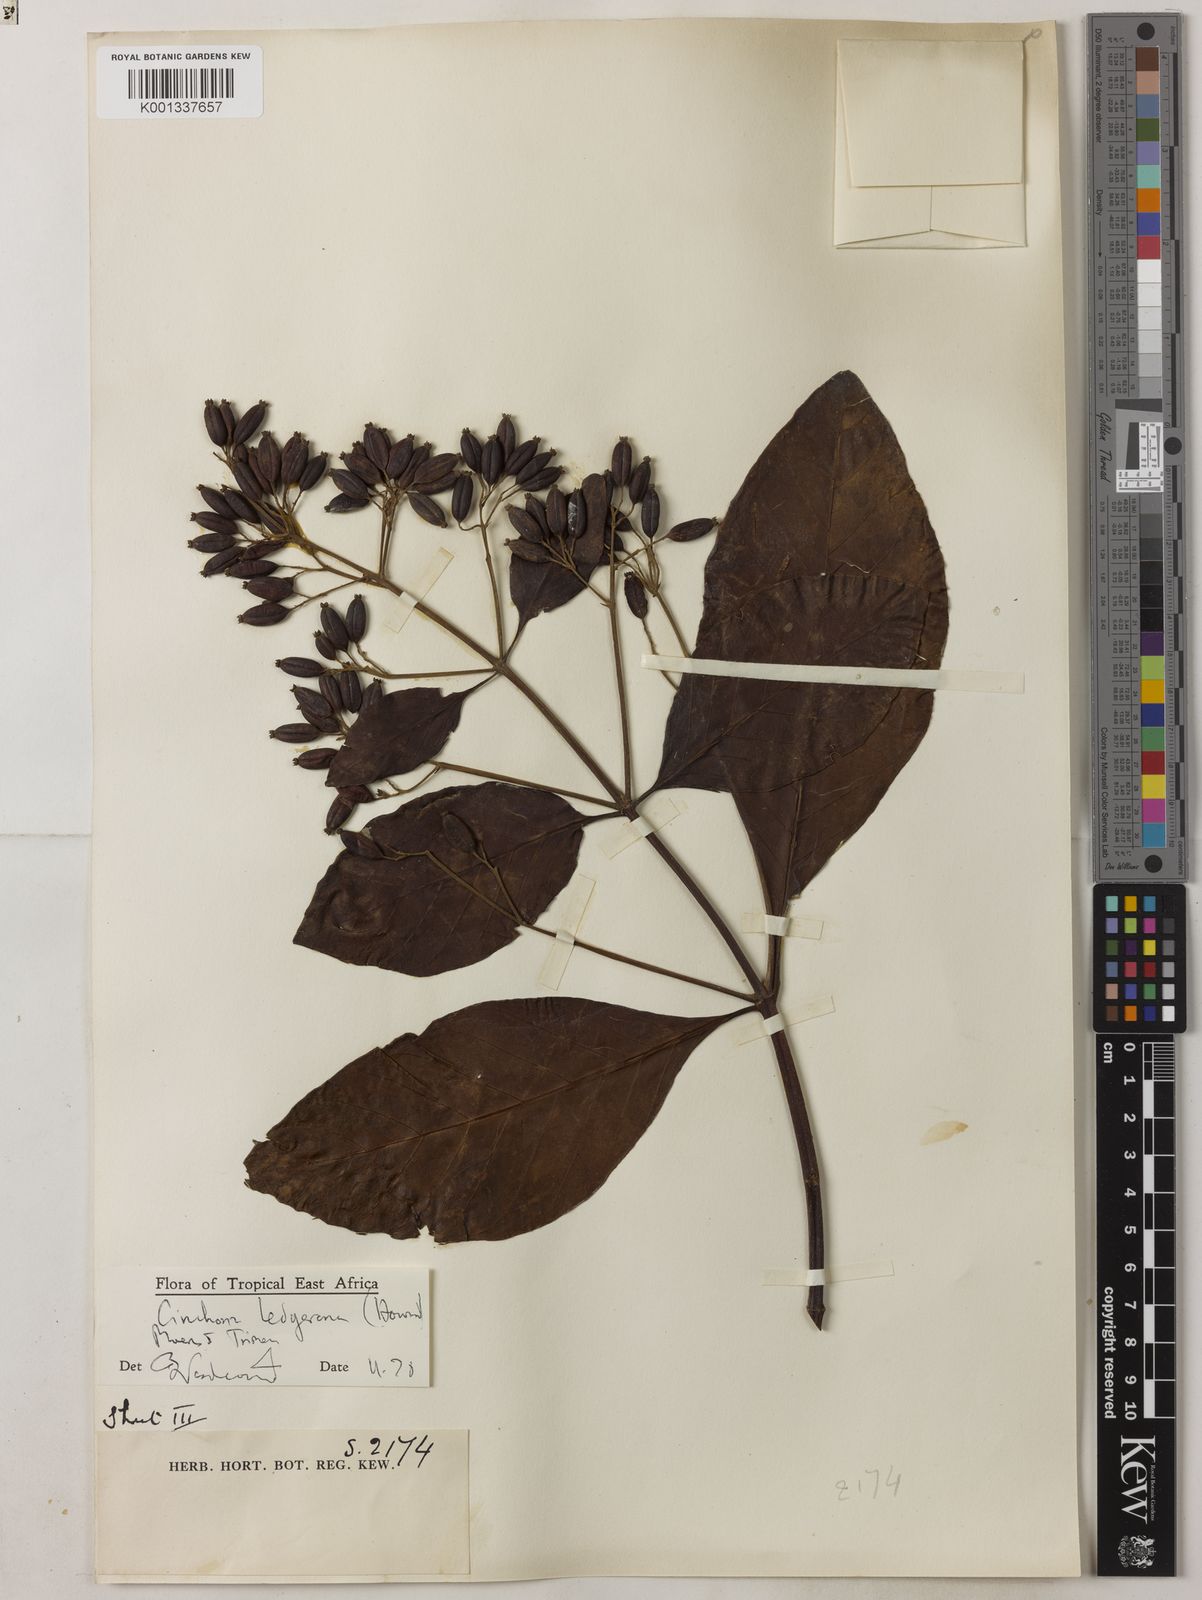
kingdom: Plantae
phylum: Tracheophyta
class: Magnoliopsida
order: Gentianales
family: Rubiaceae
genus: Cinchona
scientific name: Cinchona calisaya
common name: Ledgerbark
